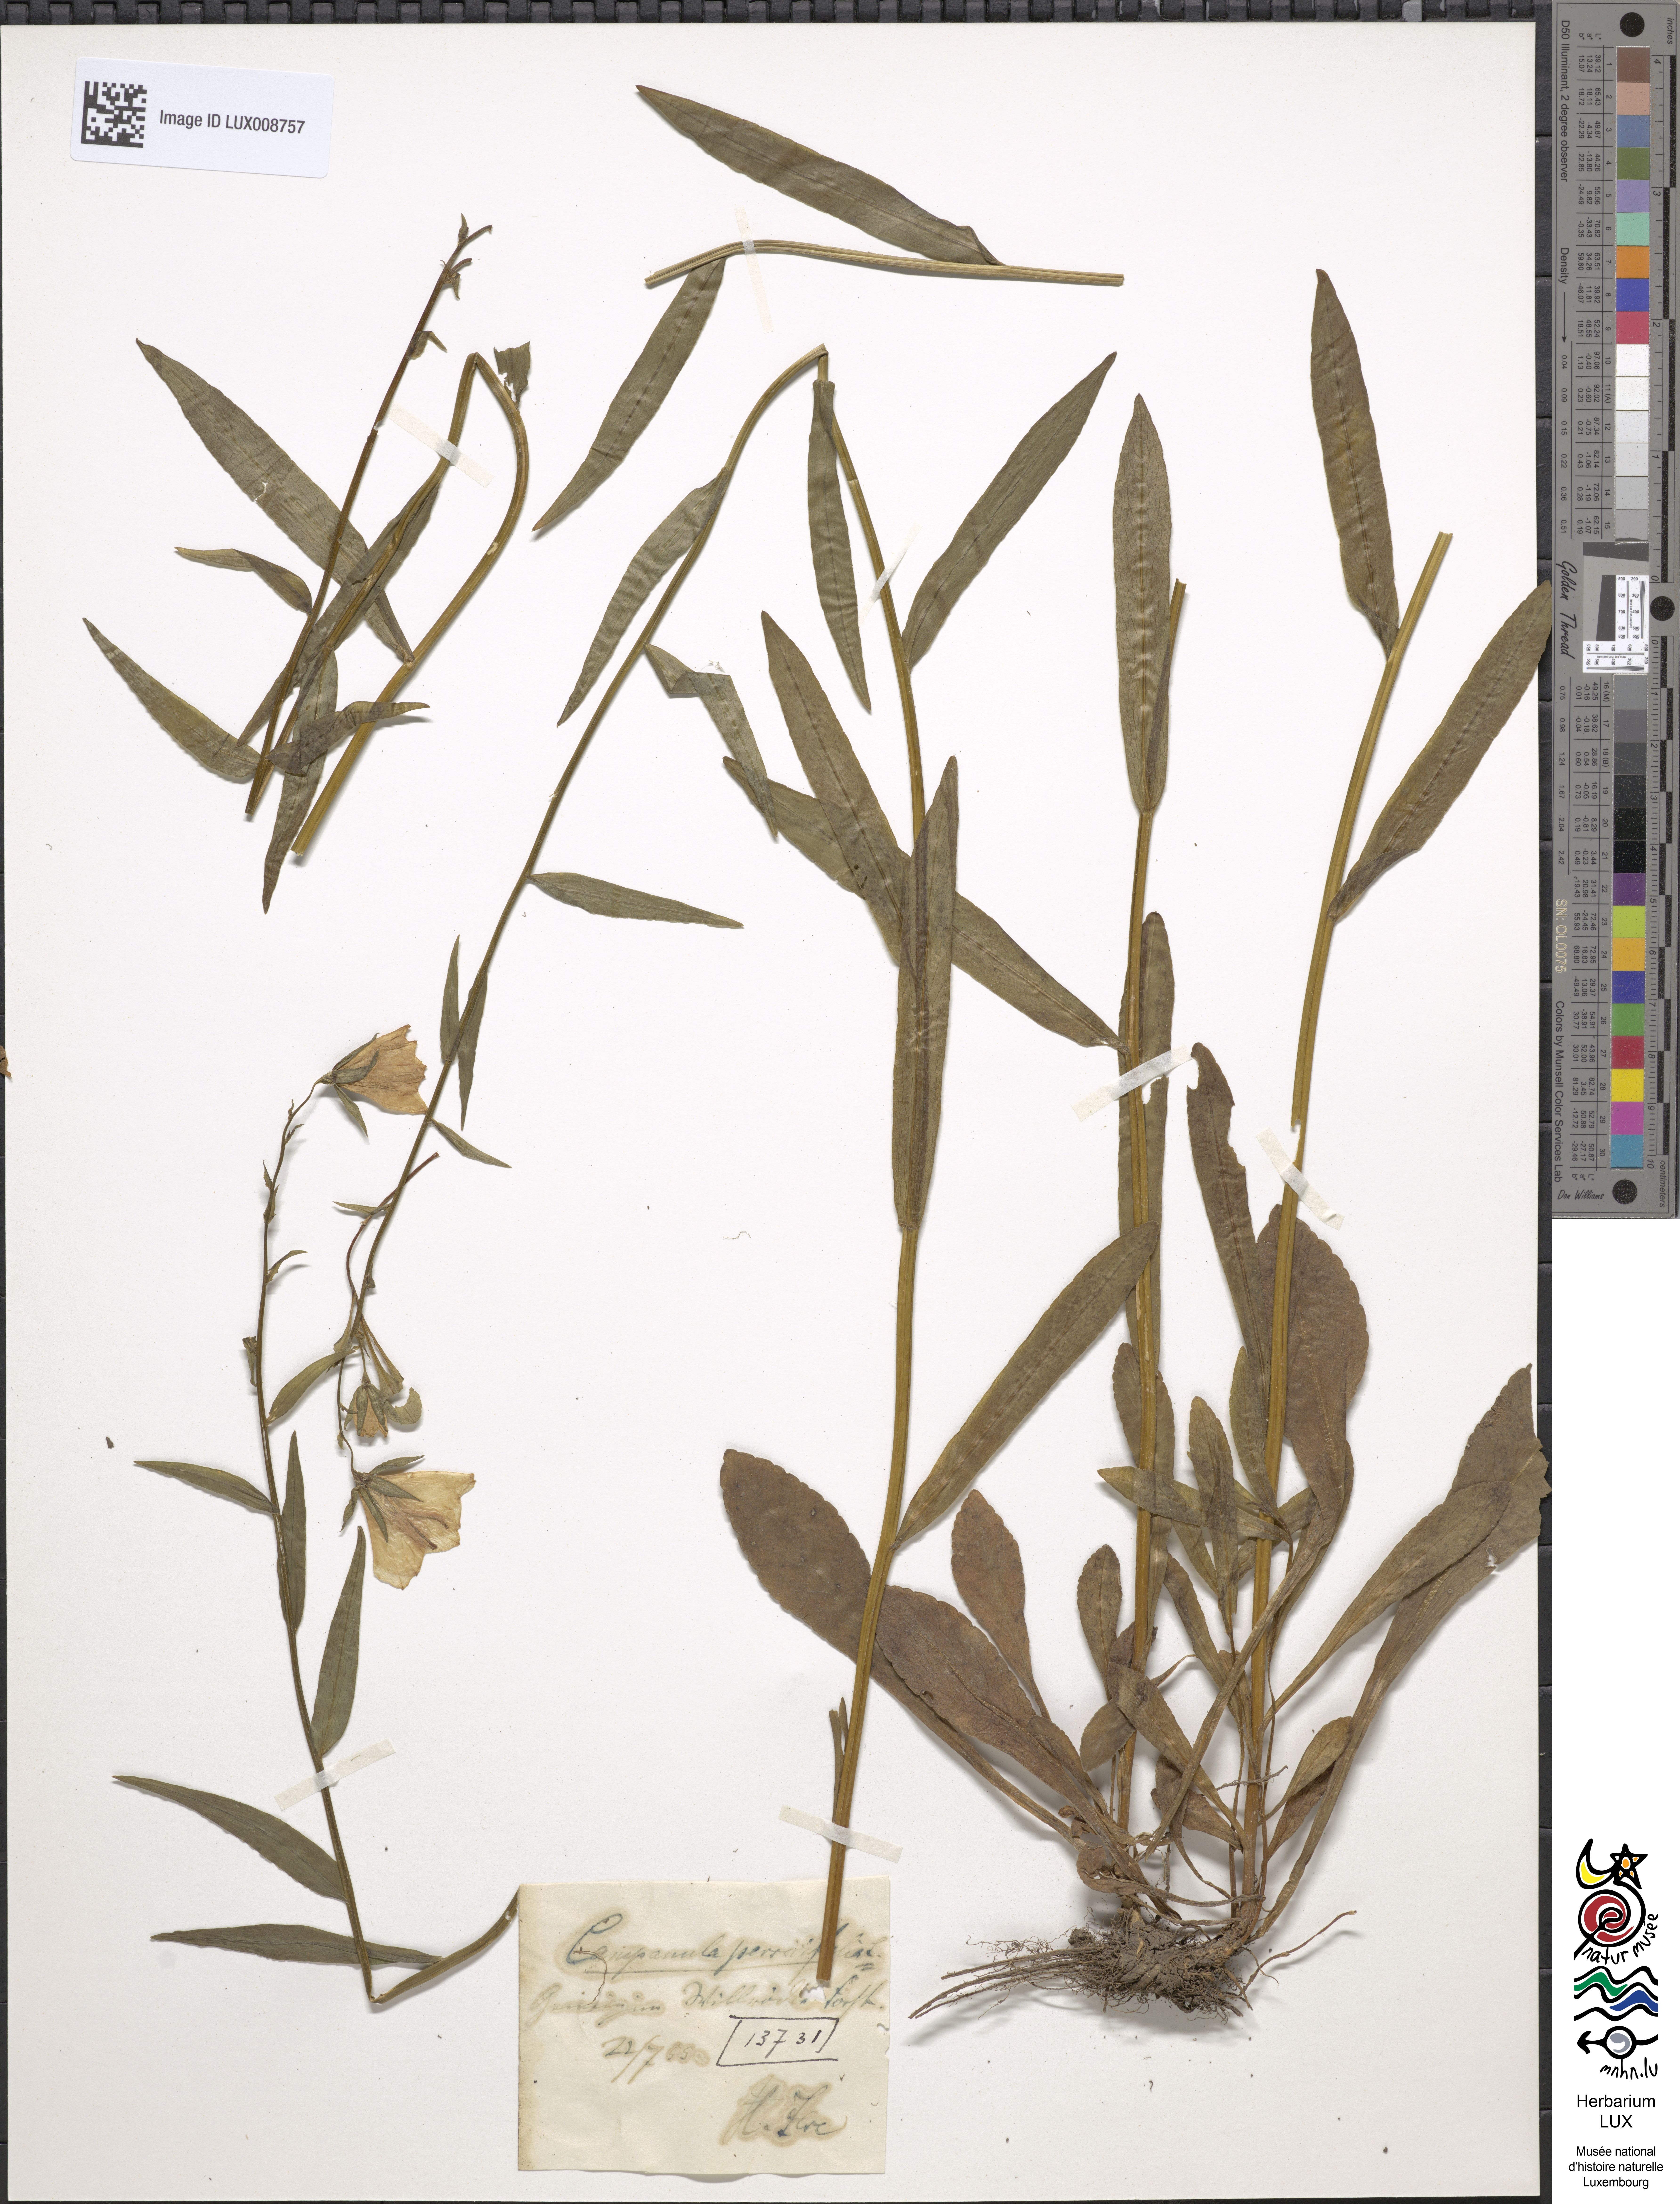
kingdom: Plantae
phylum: Tracheophyta
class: Magnoliopsida
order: Asterales
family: Campanulaceae
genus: Campanula
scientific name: Campanula persicifolia
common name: Peach-leaved bellflower
